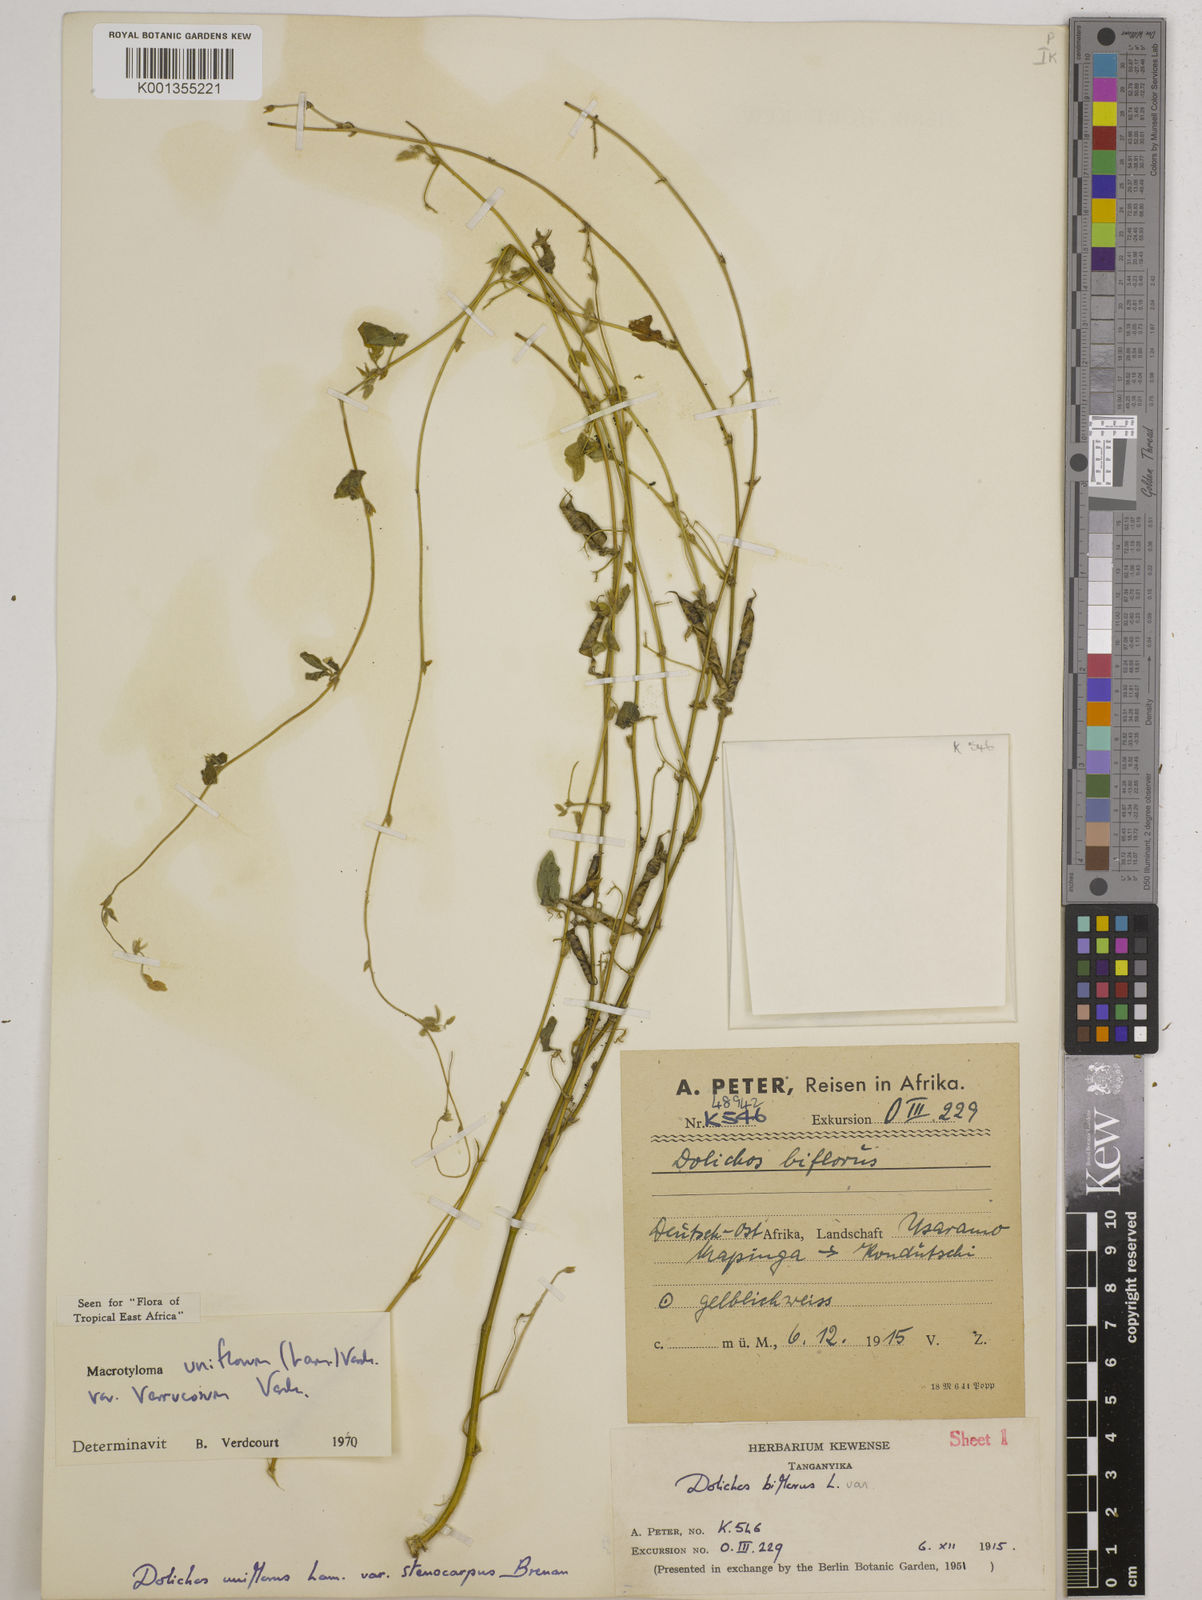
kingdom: Plantae
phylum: Tracheophyta
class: Magnoliopsida
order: Fabales
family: Fabaceae
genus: Macrotyloma
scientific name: Macrotyloma
